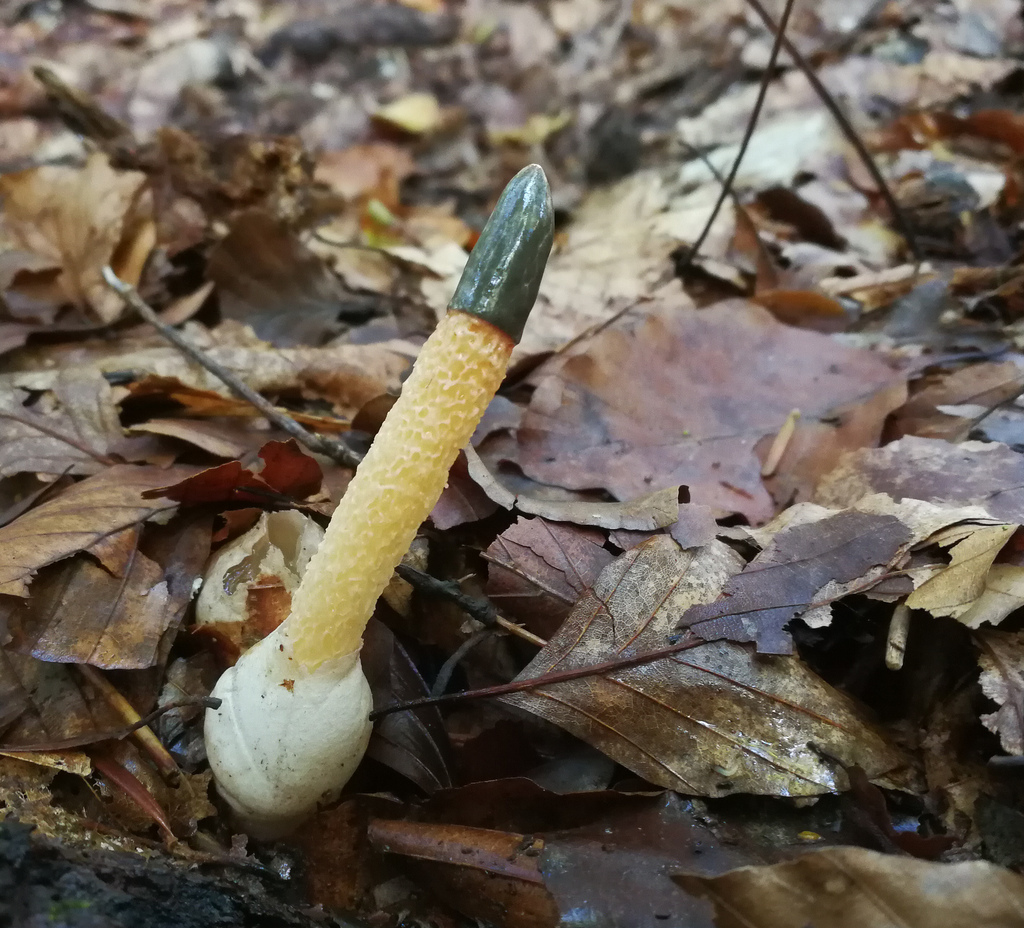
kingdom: Fungi
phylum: Basidiomycota
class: Agaricomycetes
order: Phallales
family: Phallaceae
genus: Mutinus
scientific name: Mutinus caninus
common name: hunde-stinksvamp
